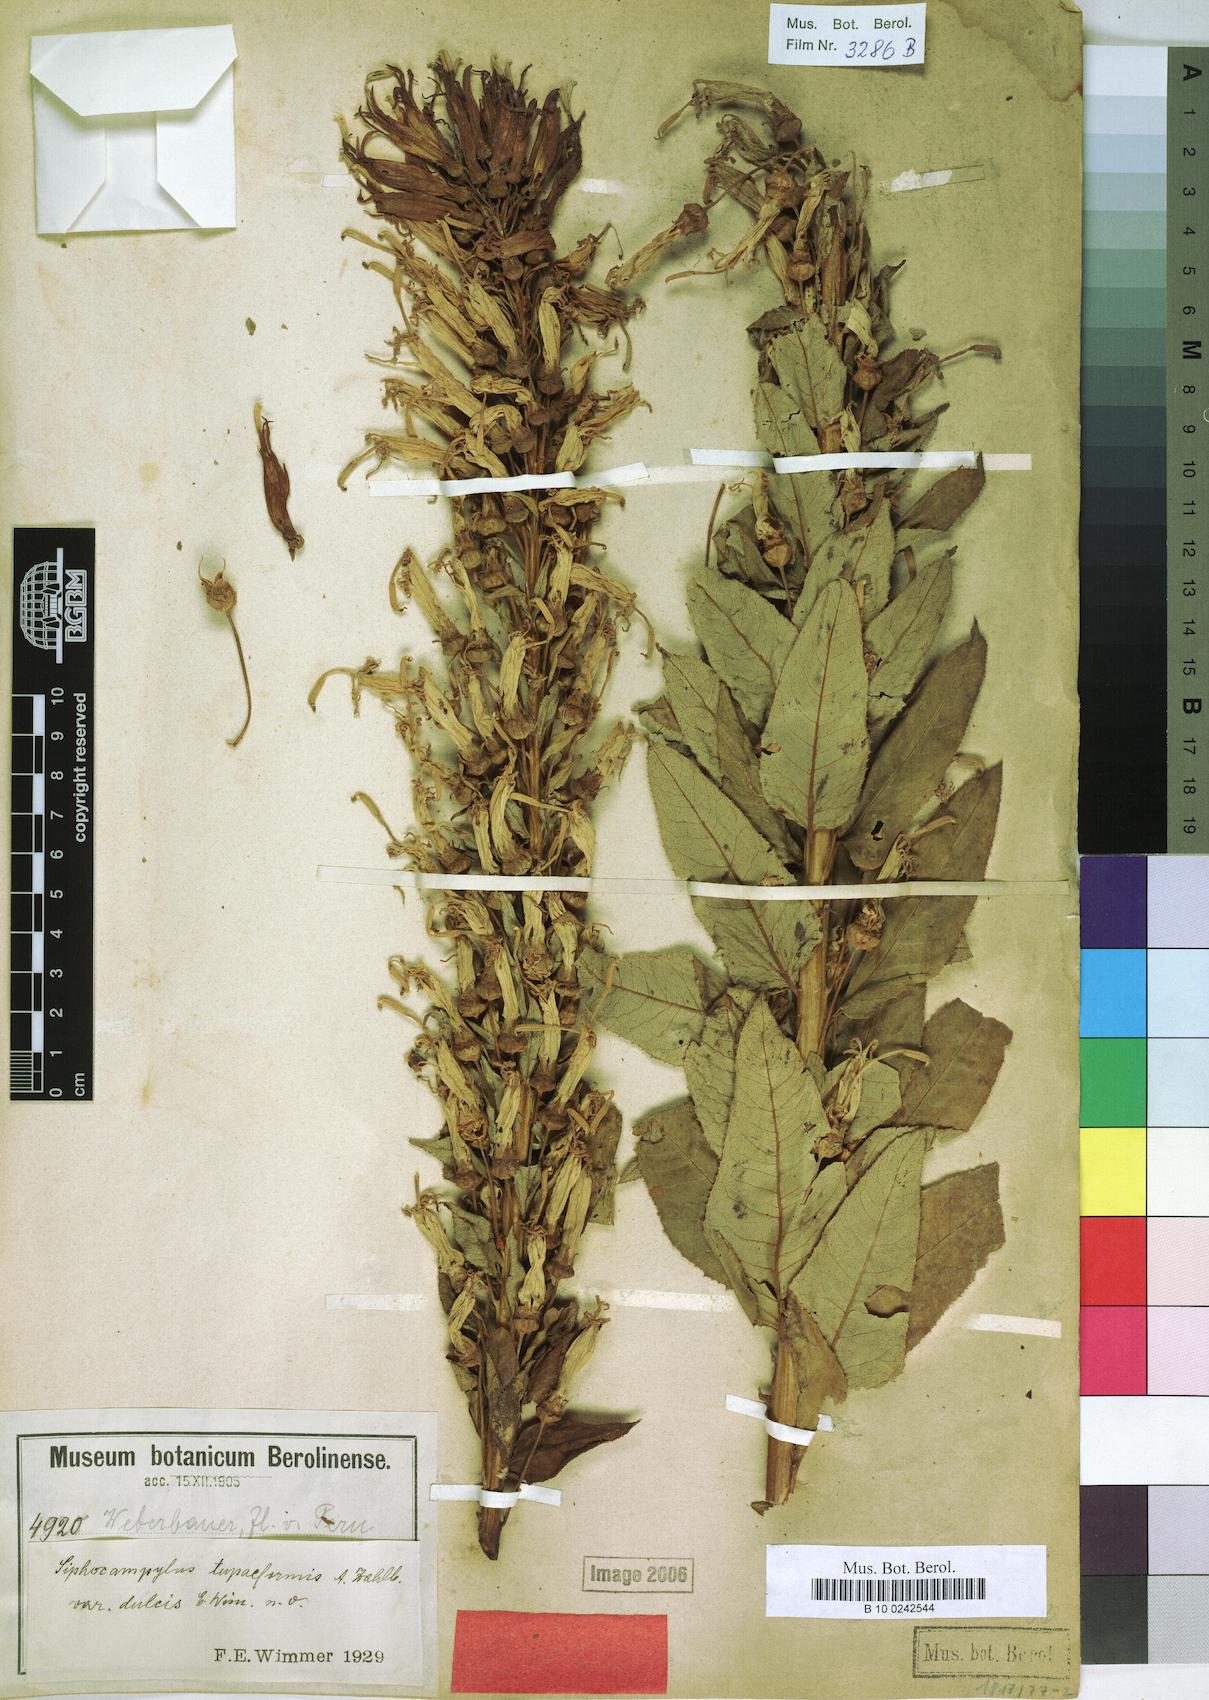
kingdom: Plantae
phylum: Tracheophyta
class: Magnoliopsida
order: Asterales
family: Campanulaceae
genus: Siphocampylus
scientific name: Siphocampylus tupaeformis
